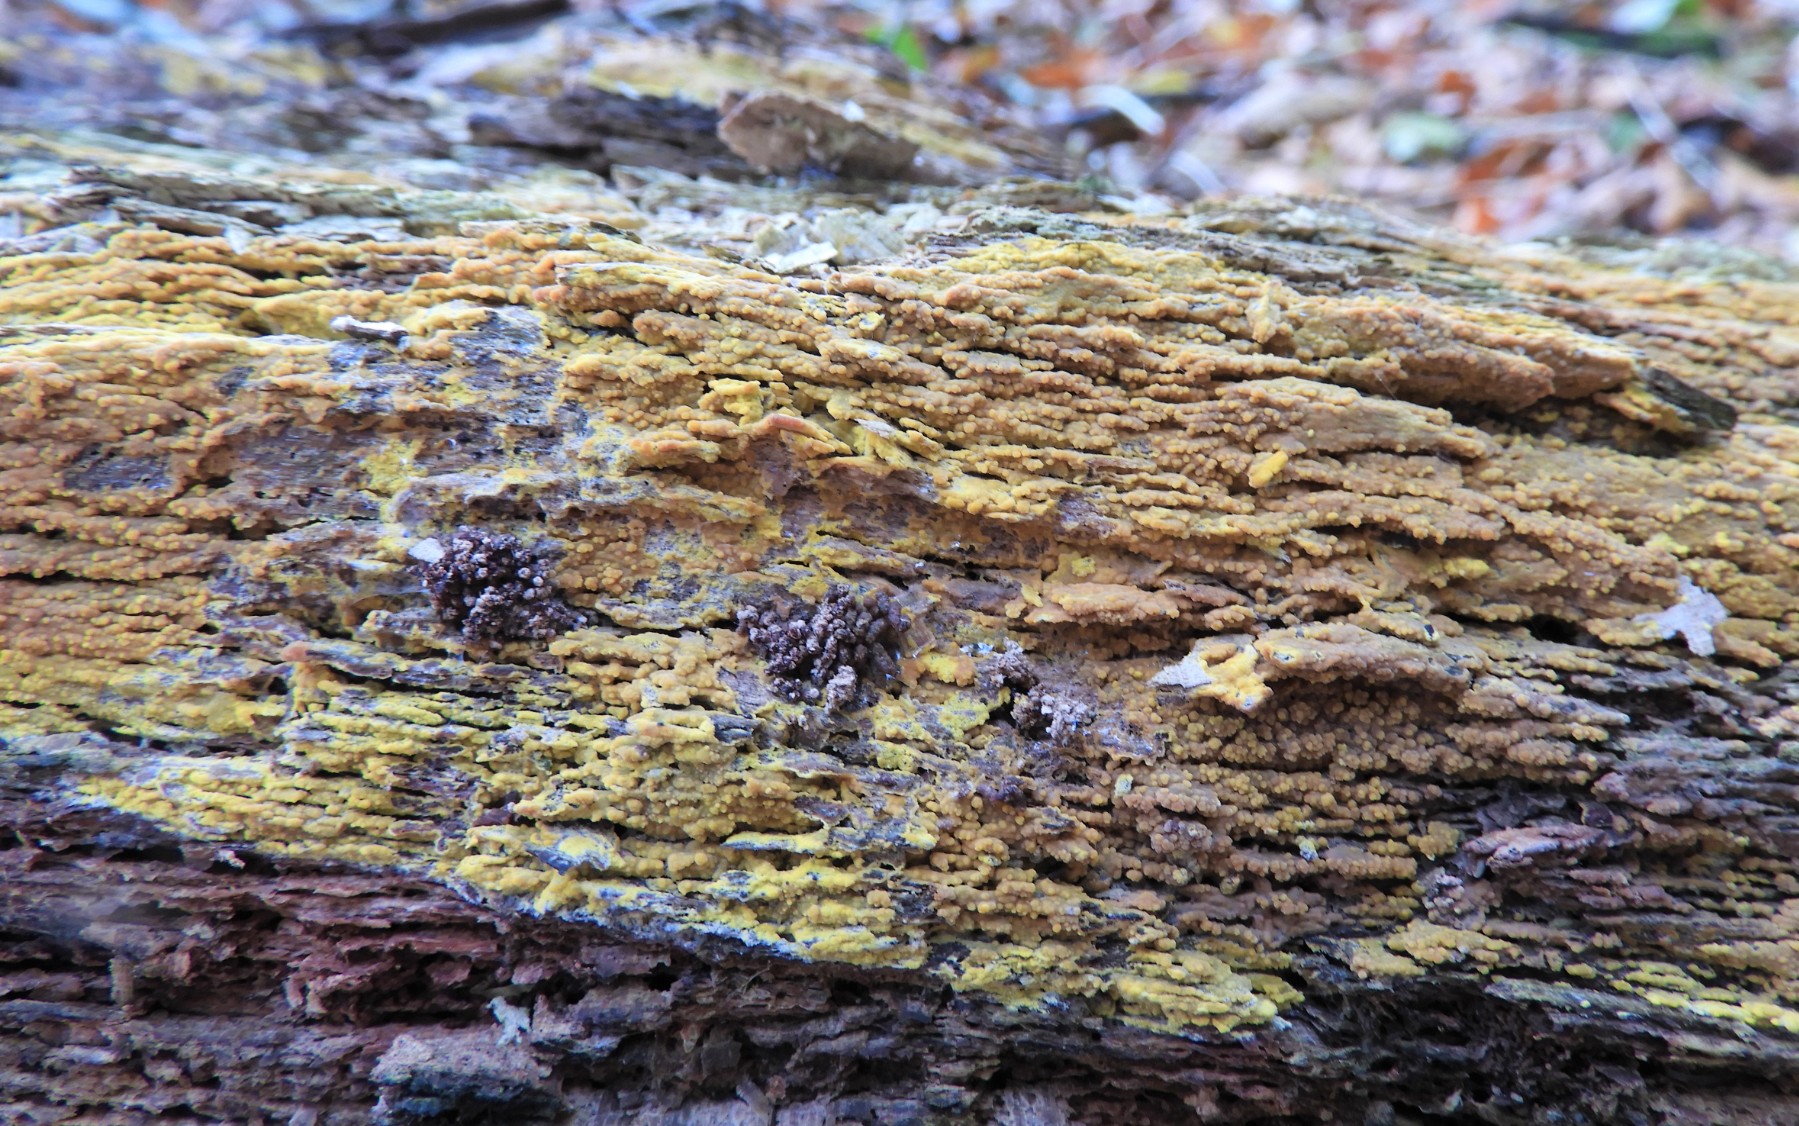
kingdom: Fungi
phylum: Basidiomycota
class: Agaricomycetes
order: Polyporales
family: Meruliaceae
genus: Phlebiodontia
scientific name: Phlebiodontia subochracea
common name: svovl-åresvamp
